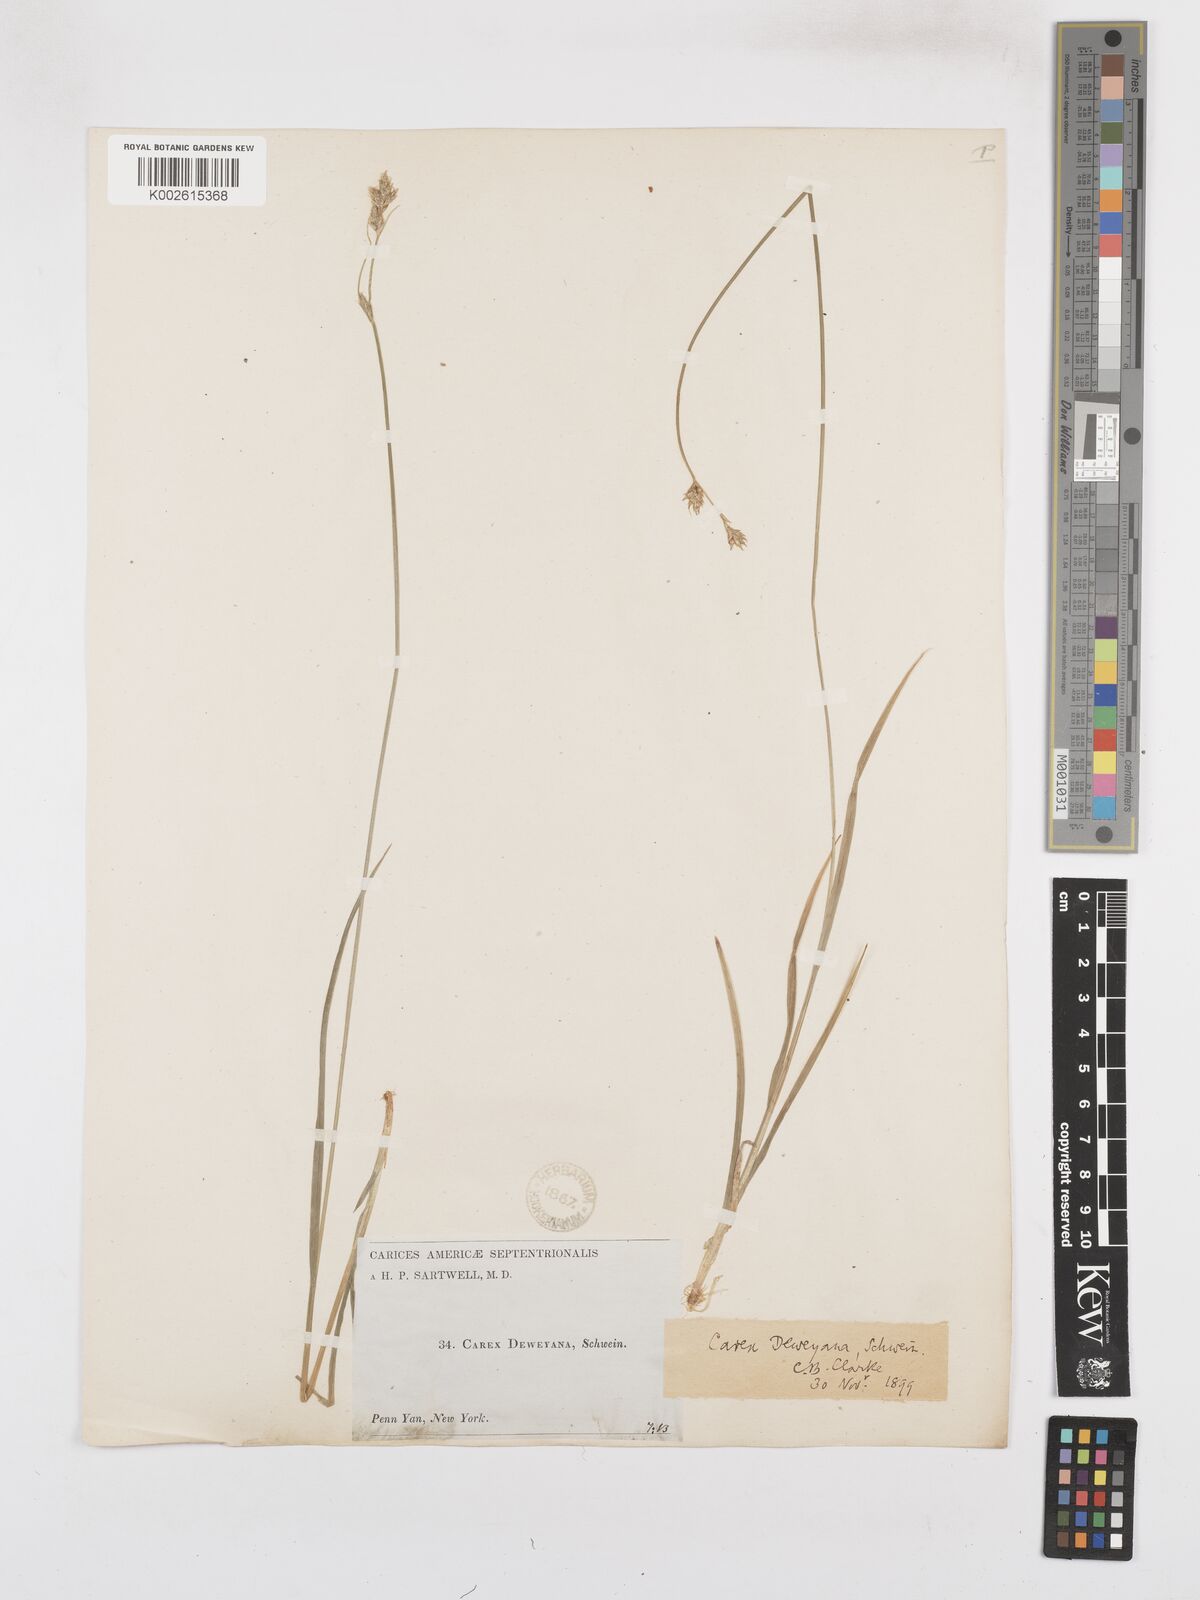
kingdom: Plantae
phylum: Tracheophyta
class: Liliopsida
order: Poales
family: Cyperaceae
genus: Carex
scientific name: Carex deweyana
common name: Dewey's sedge
